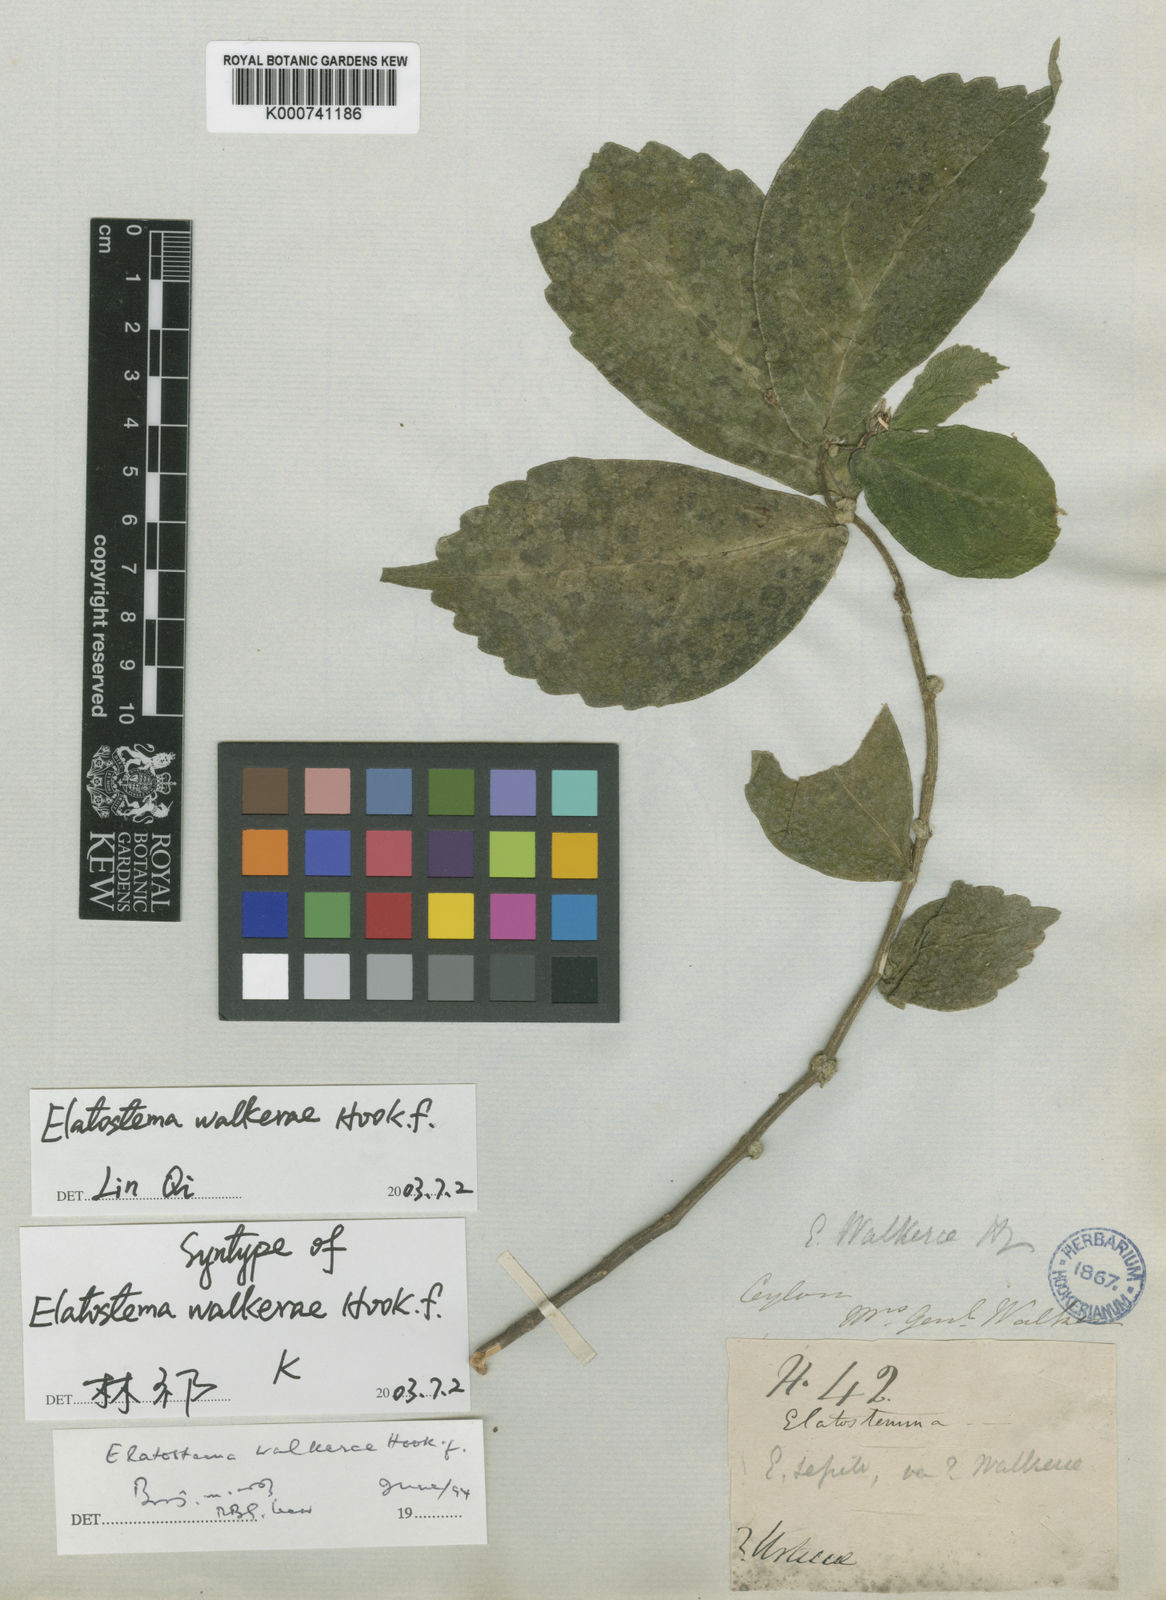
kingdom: Plantae
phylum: Tracheophyta
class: Magnoliopsida
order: Rosales
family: Urticaceae
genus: Elatostema
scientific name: Elatostema walkerae
